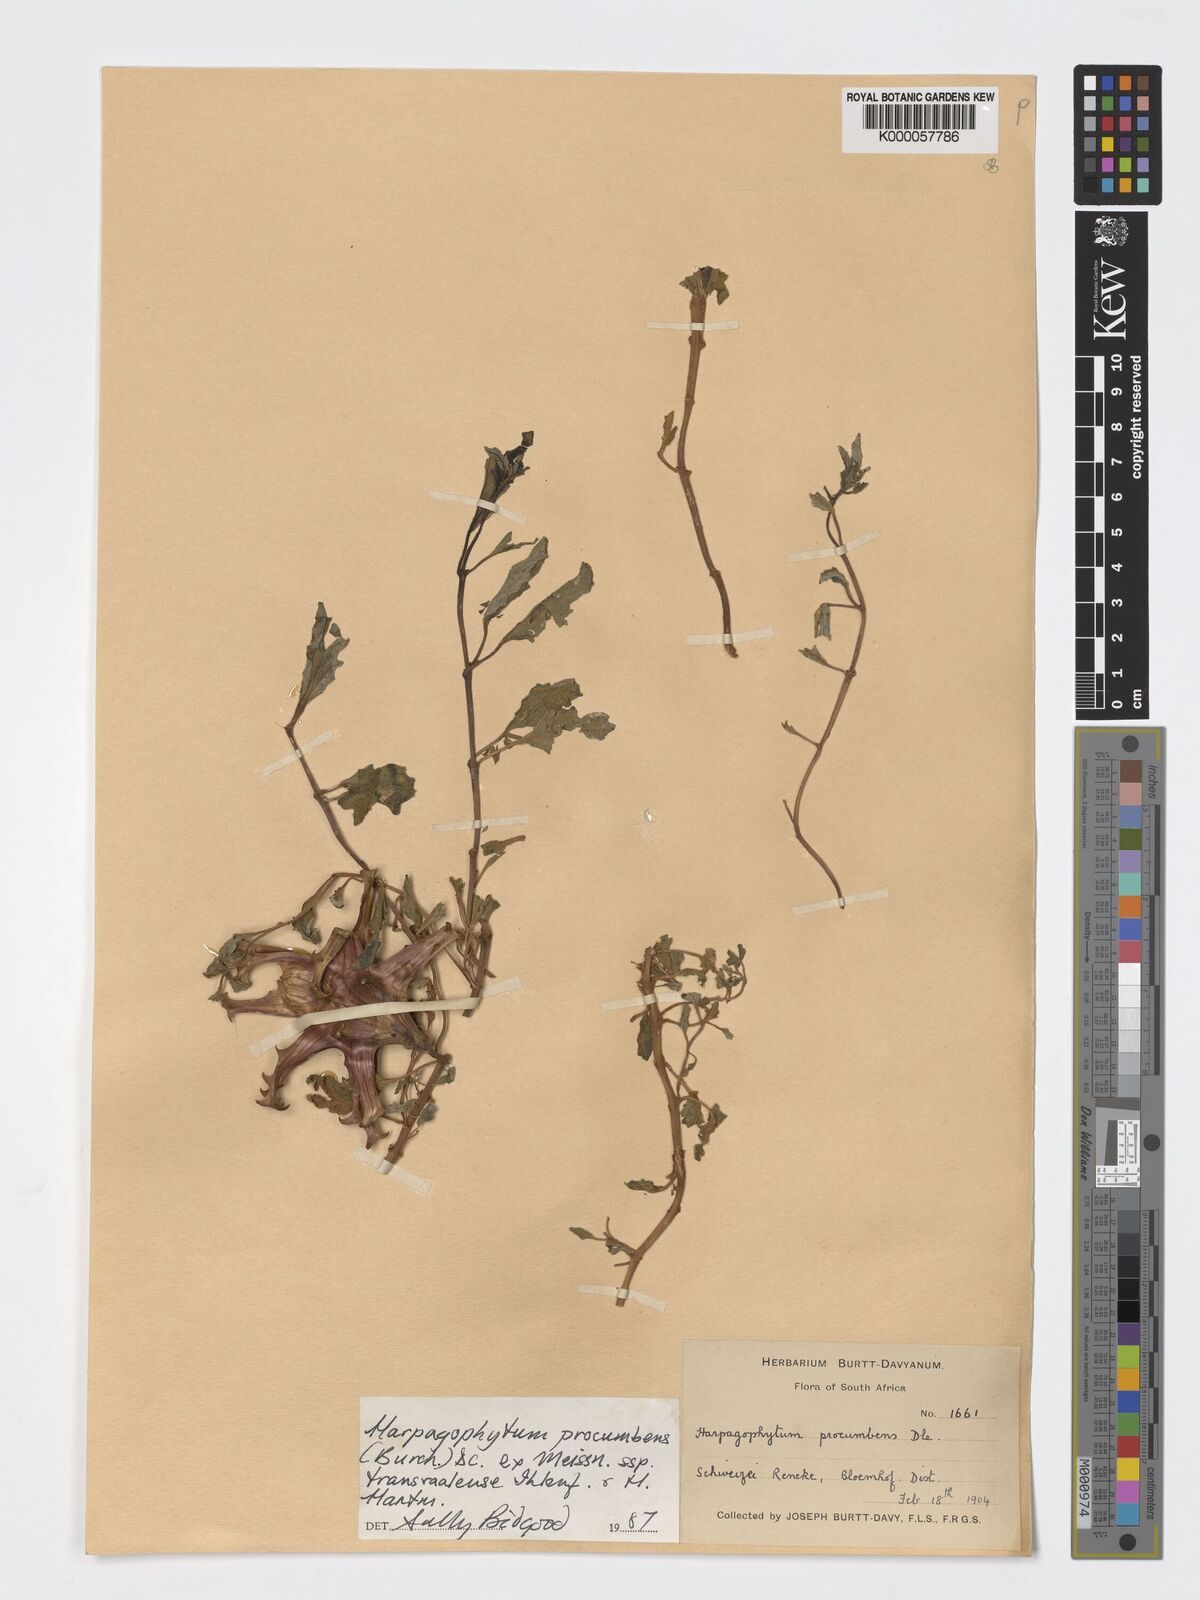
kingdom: Plantae
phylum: Tracheophyta
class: Magnoliopsida
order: Lamiales
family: Pedaliaceae
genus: Harpagophytum
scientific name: Harpagophytum procumbens
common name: Grappleplant
